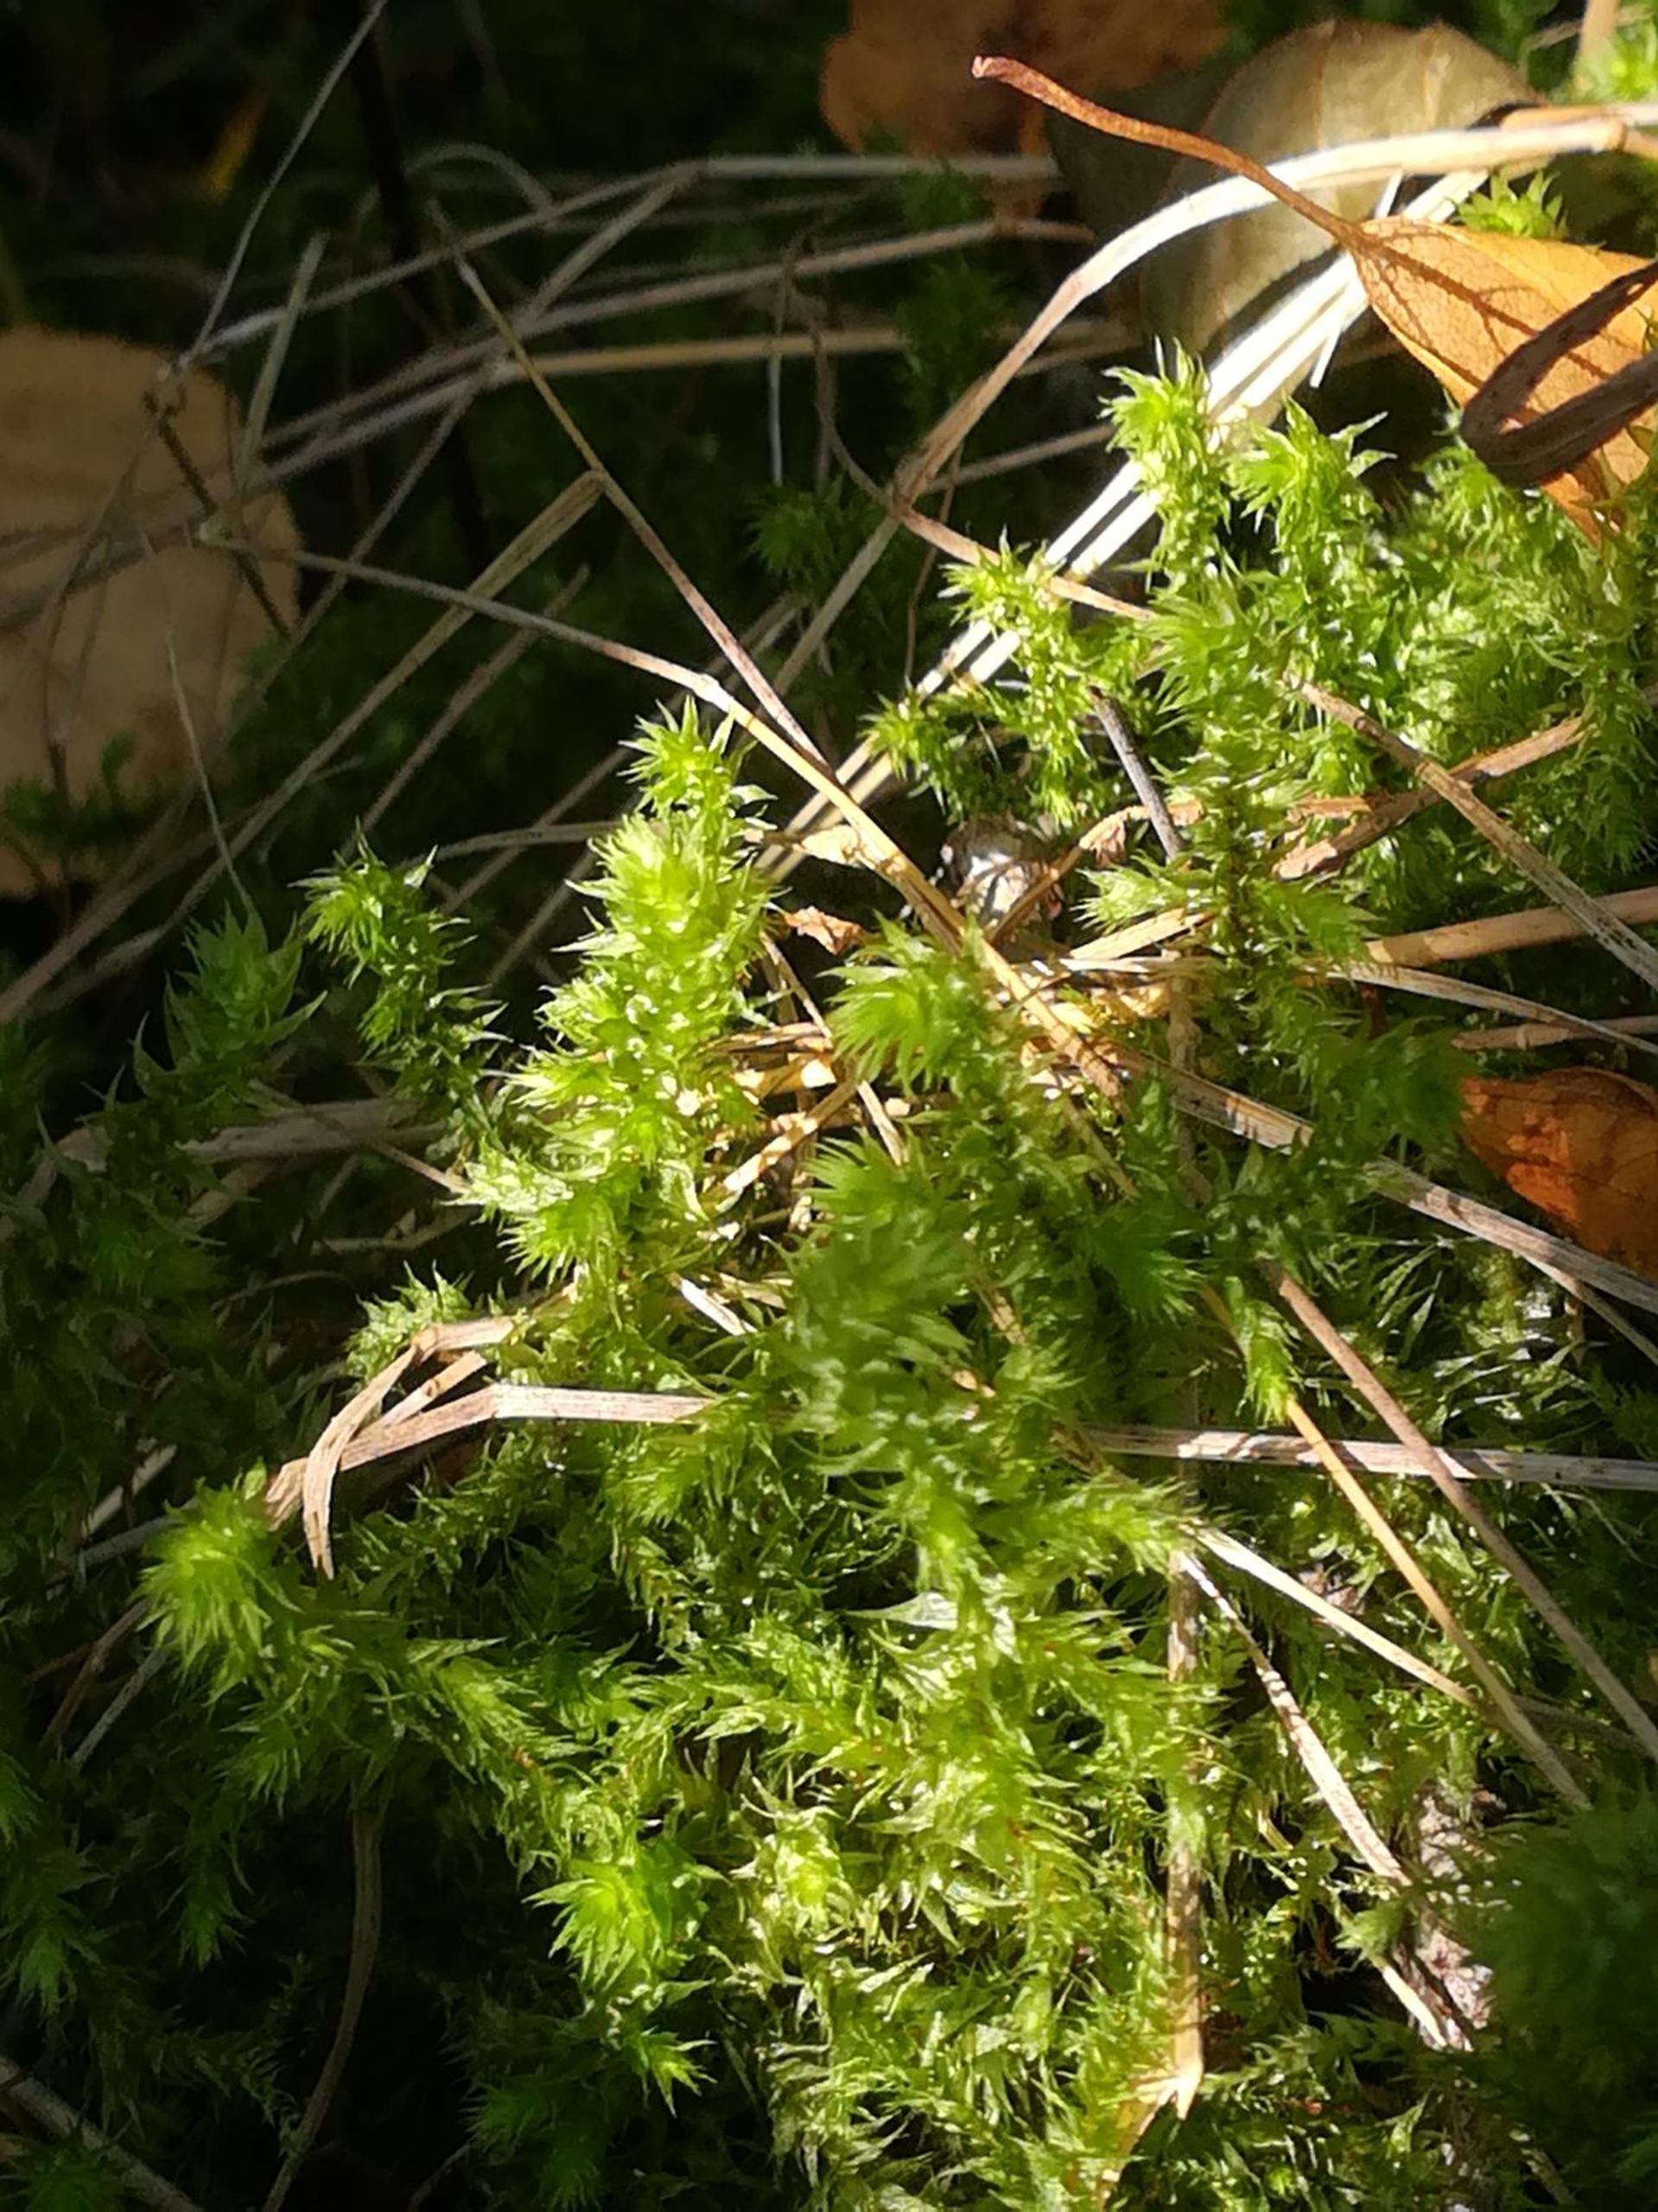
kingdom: Plantae
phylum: Bryophyta
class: Bryopsida
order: Hypnales
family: Hylocomiaceae
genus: Hylocomiadelphus
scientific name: Hylocomiadelphus triquetrus
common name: Stor kransemos
